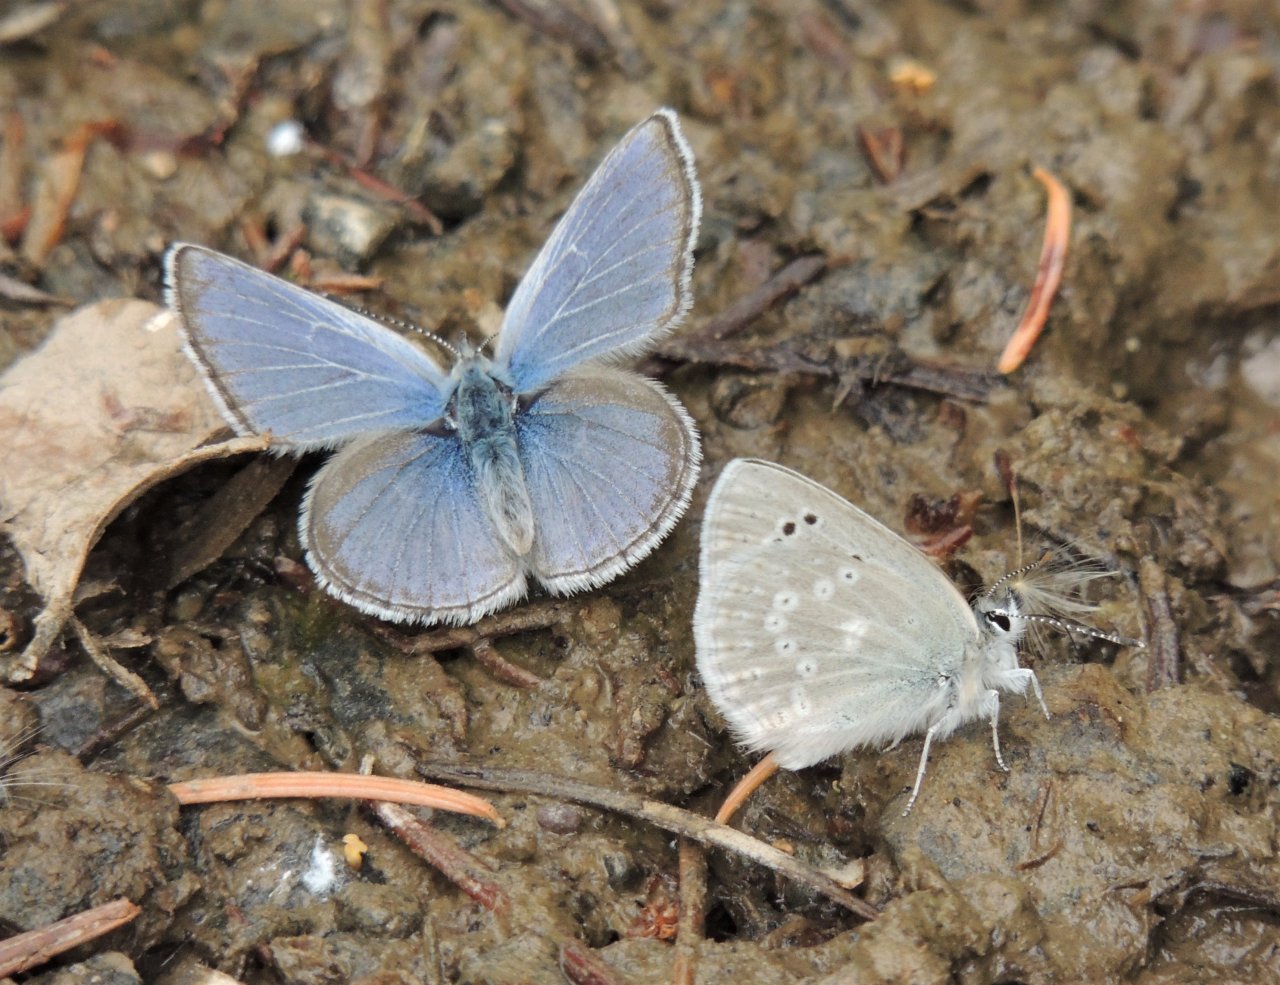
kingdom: Animalia
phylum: Arthropoda
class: Insecta
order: Lepidoptera
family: Lycaenidae
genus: Icaricia
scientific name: Icaricia icarioides
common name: Boisduval's Blue
